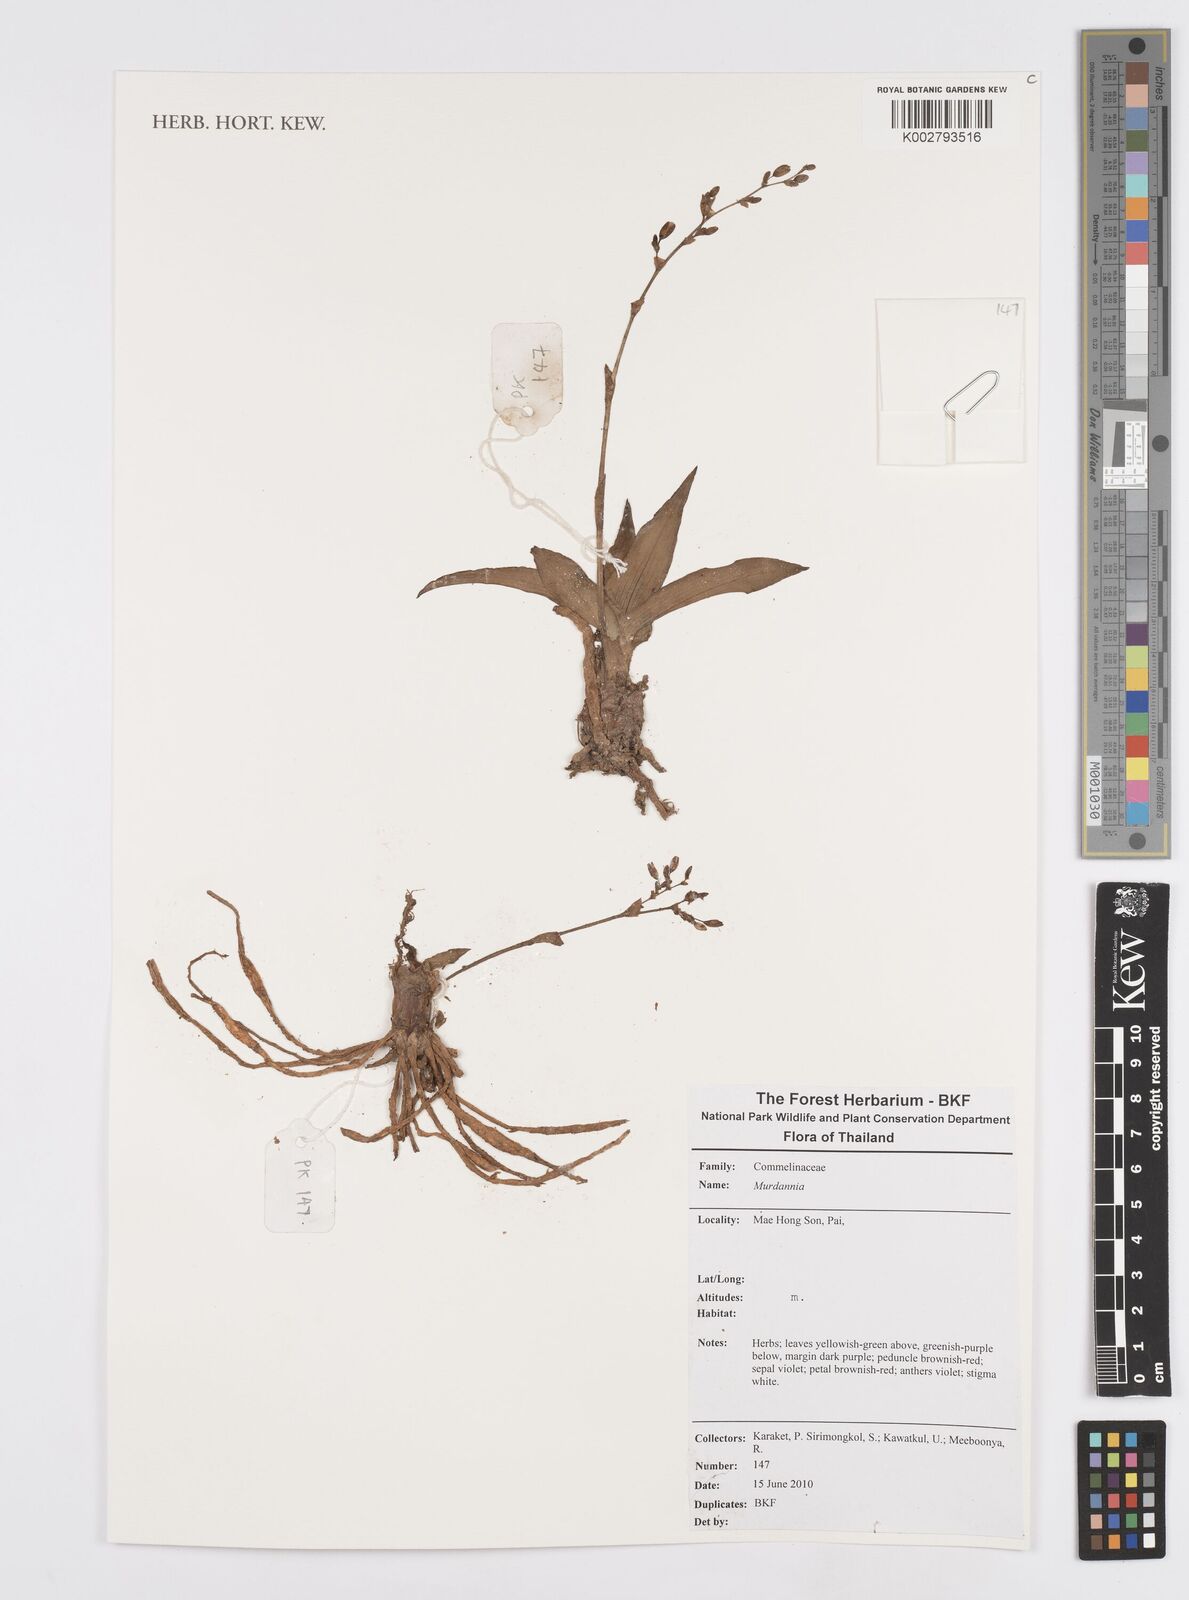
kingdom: Plantae
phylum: Tracheophyta
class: Liliopsida
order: Commelinales
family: Commelinaceae
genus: Murdannia
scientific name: Murdannia
